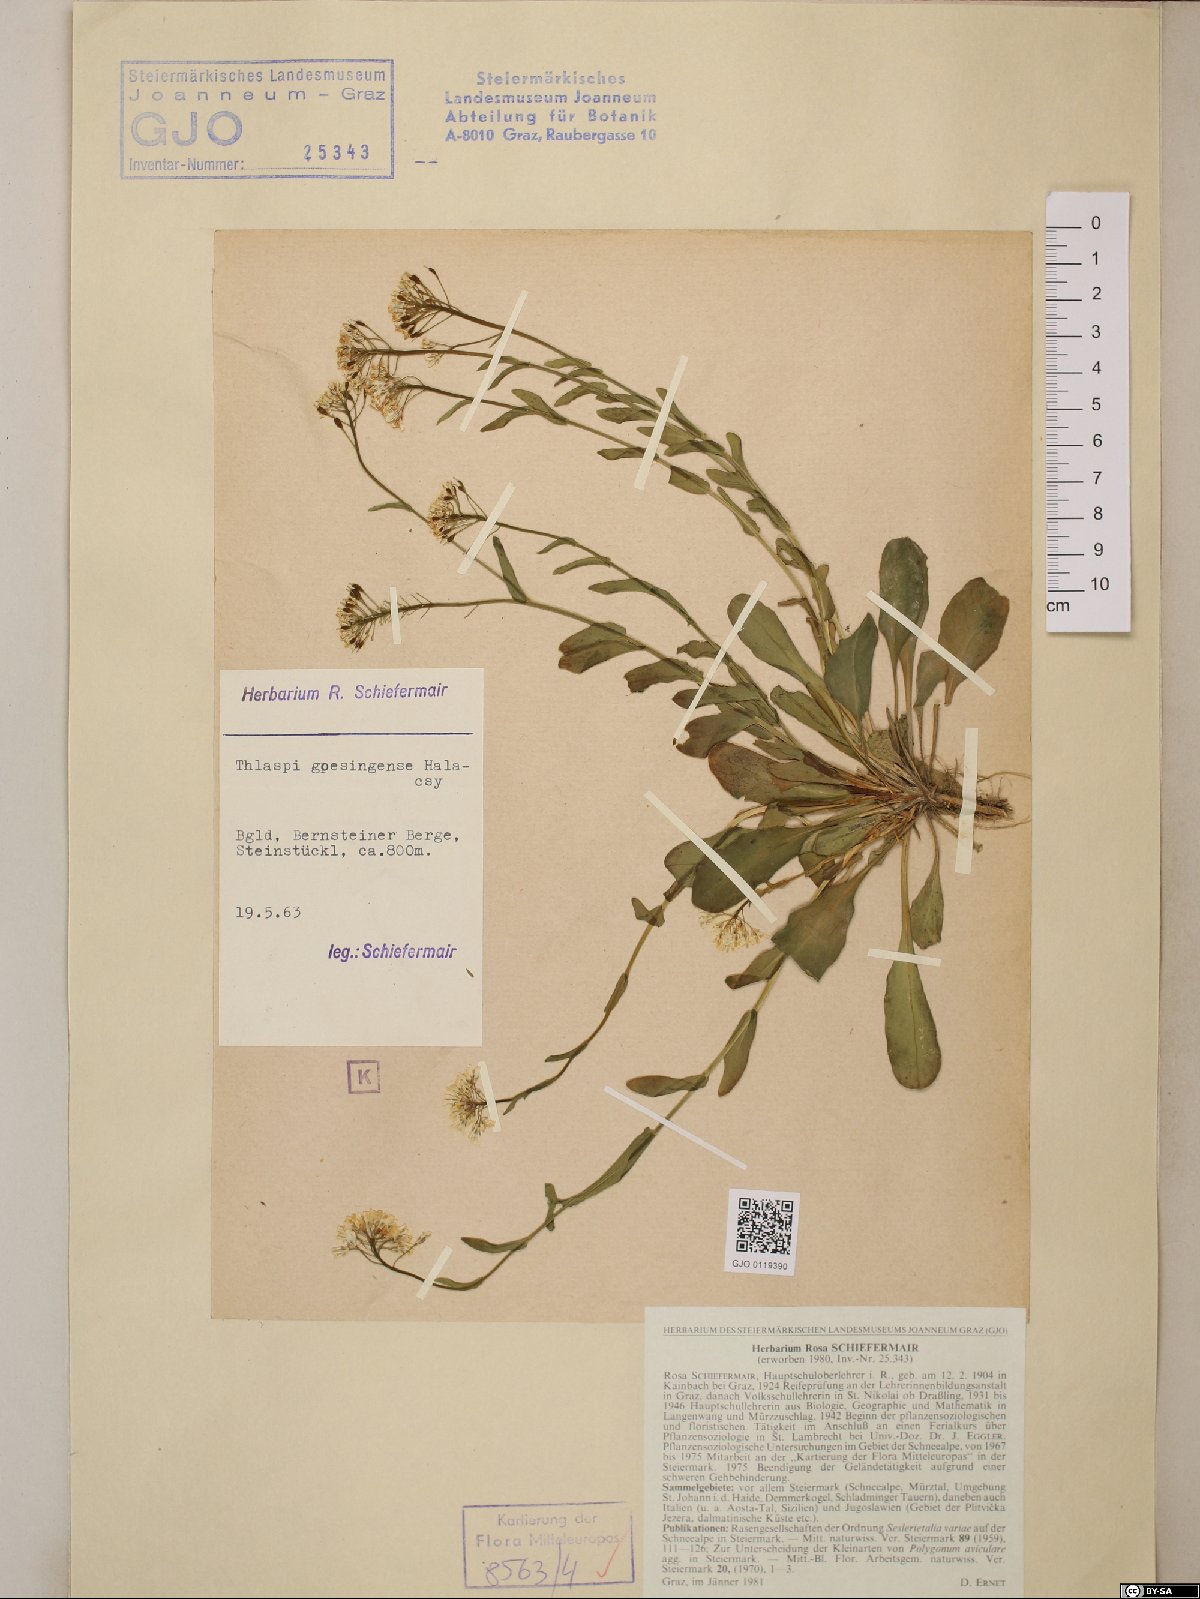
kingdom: Plantae
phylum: Tracheophyta
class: Magnoliopsida
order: Brassicales
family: Brassicaceae
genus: Noccaea
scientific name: Noccaea goesingensis
